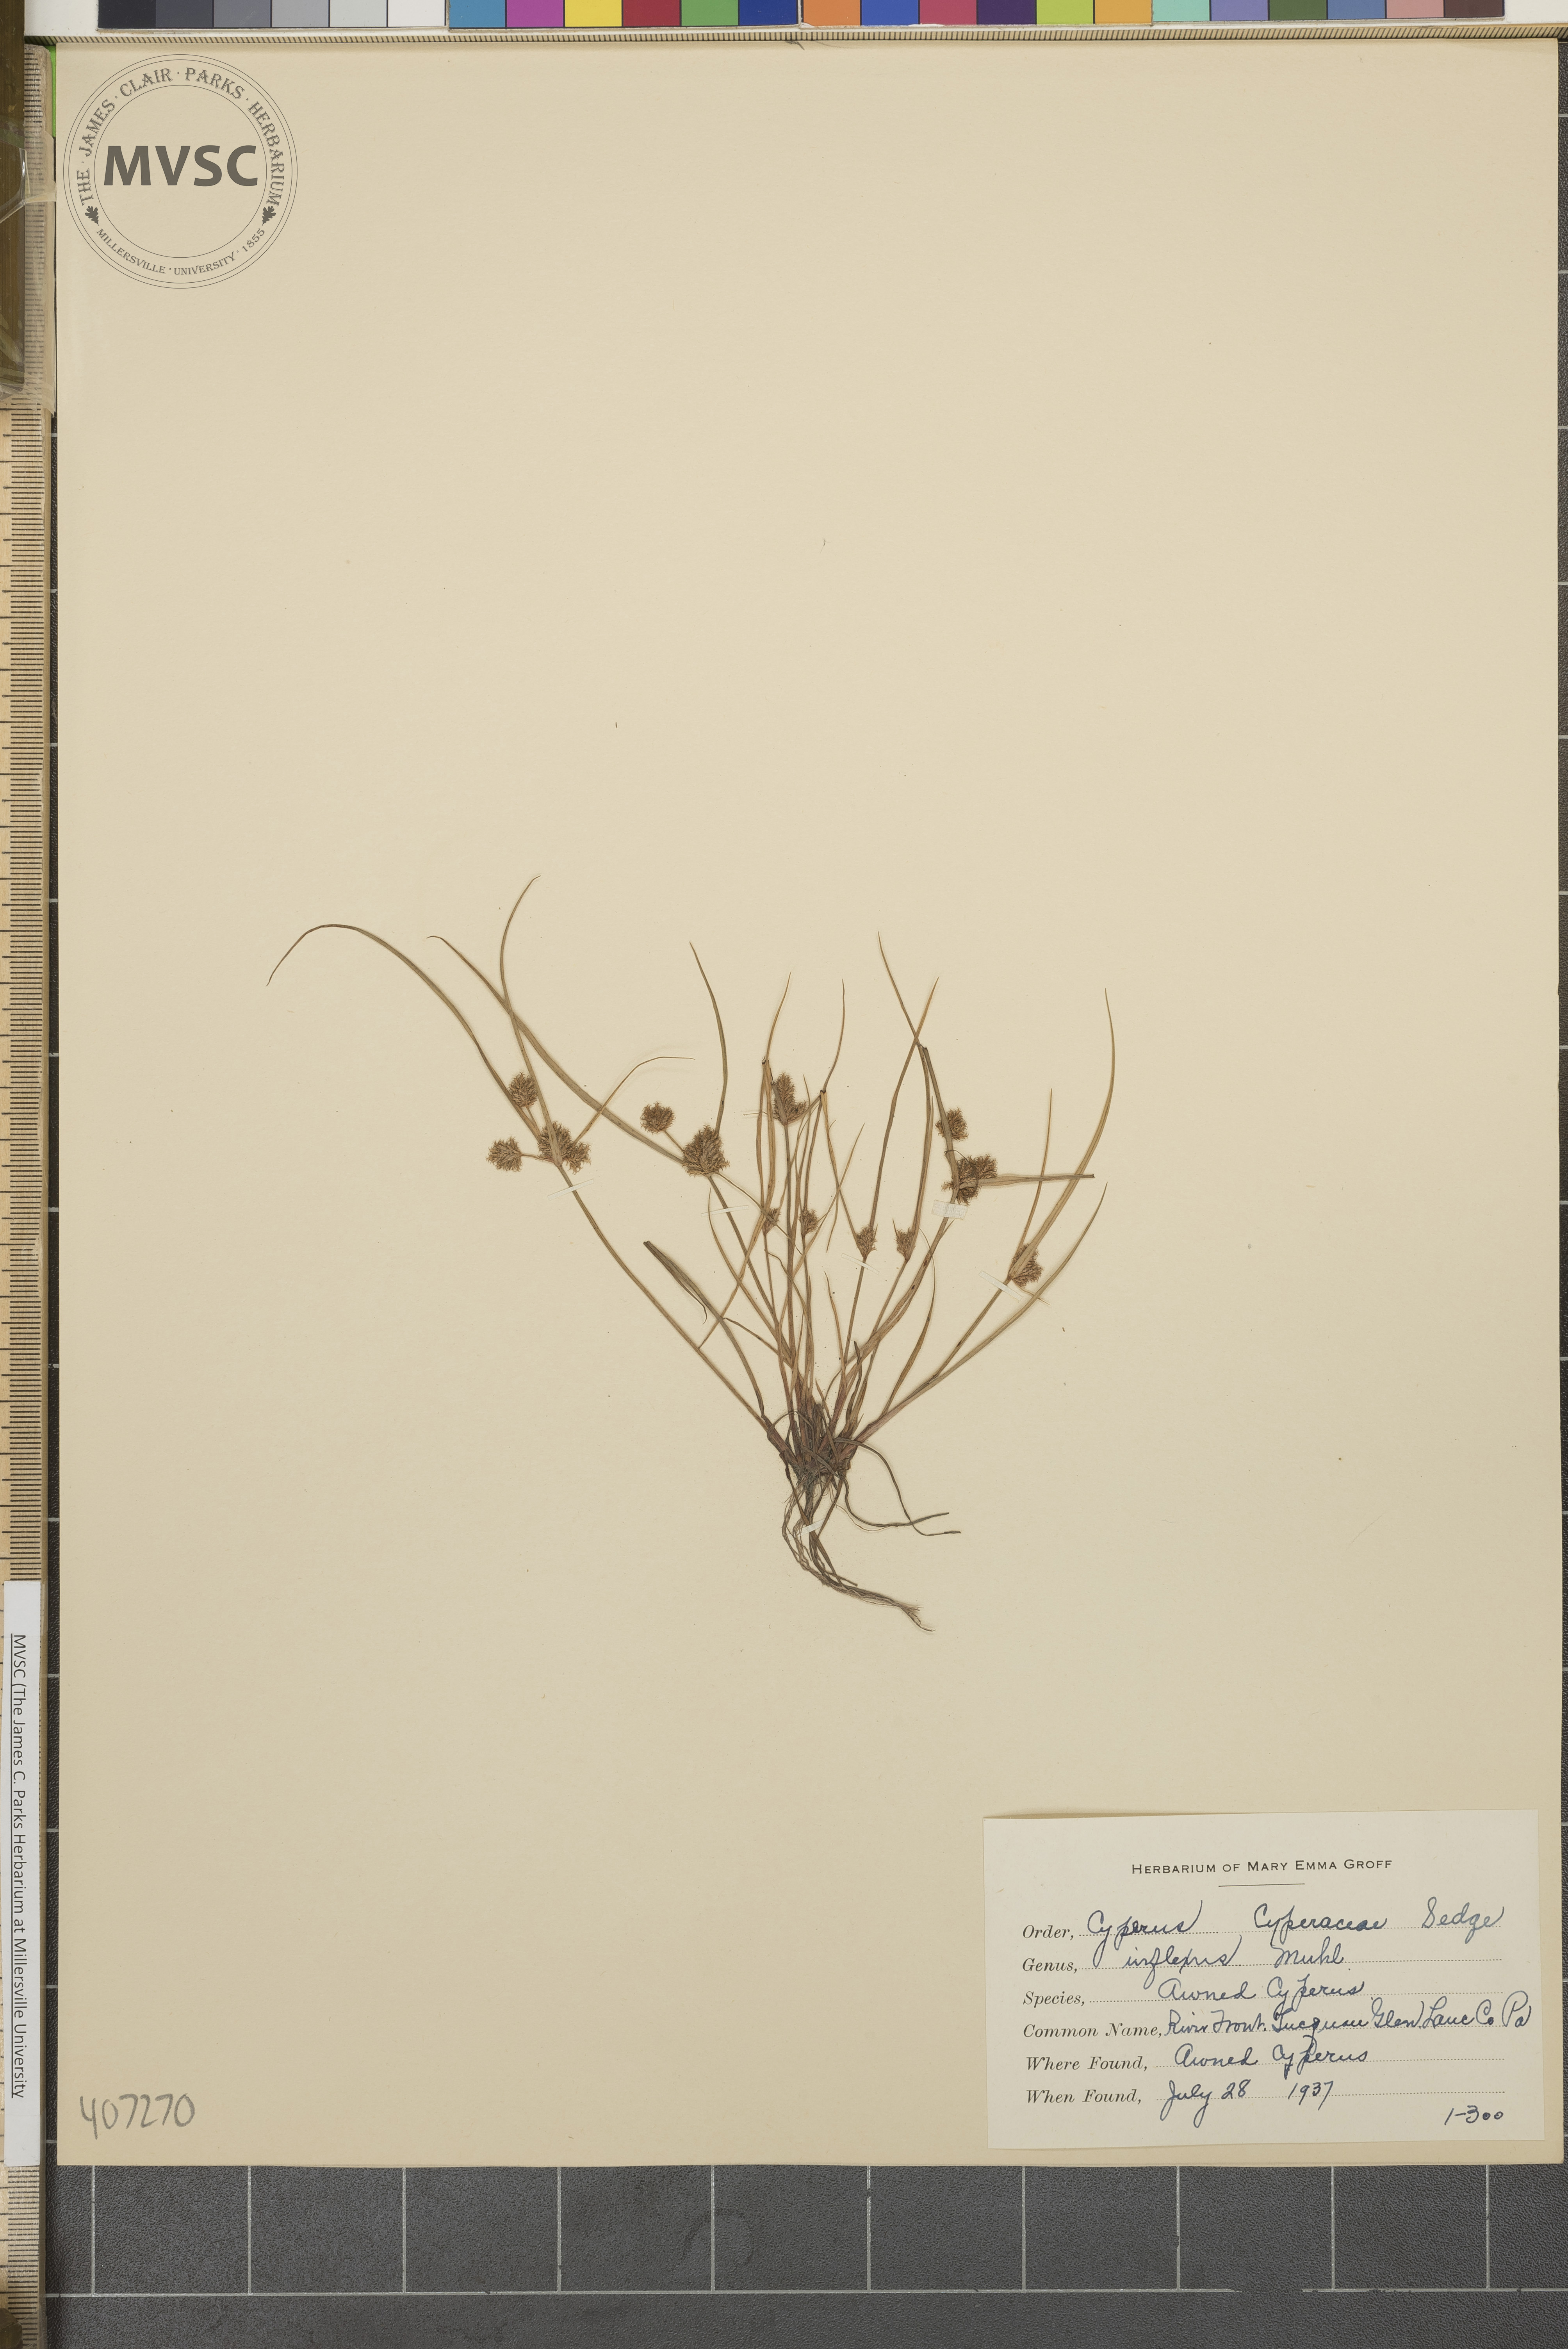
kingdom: Plantae
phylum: Tracheophyta
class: Liliopsida
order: Poales
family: Cyperaceae
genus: Cyperus
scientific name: Cyperus squarrosus
